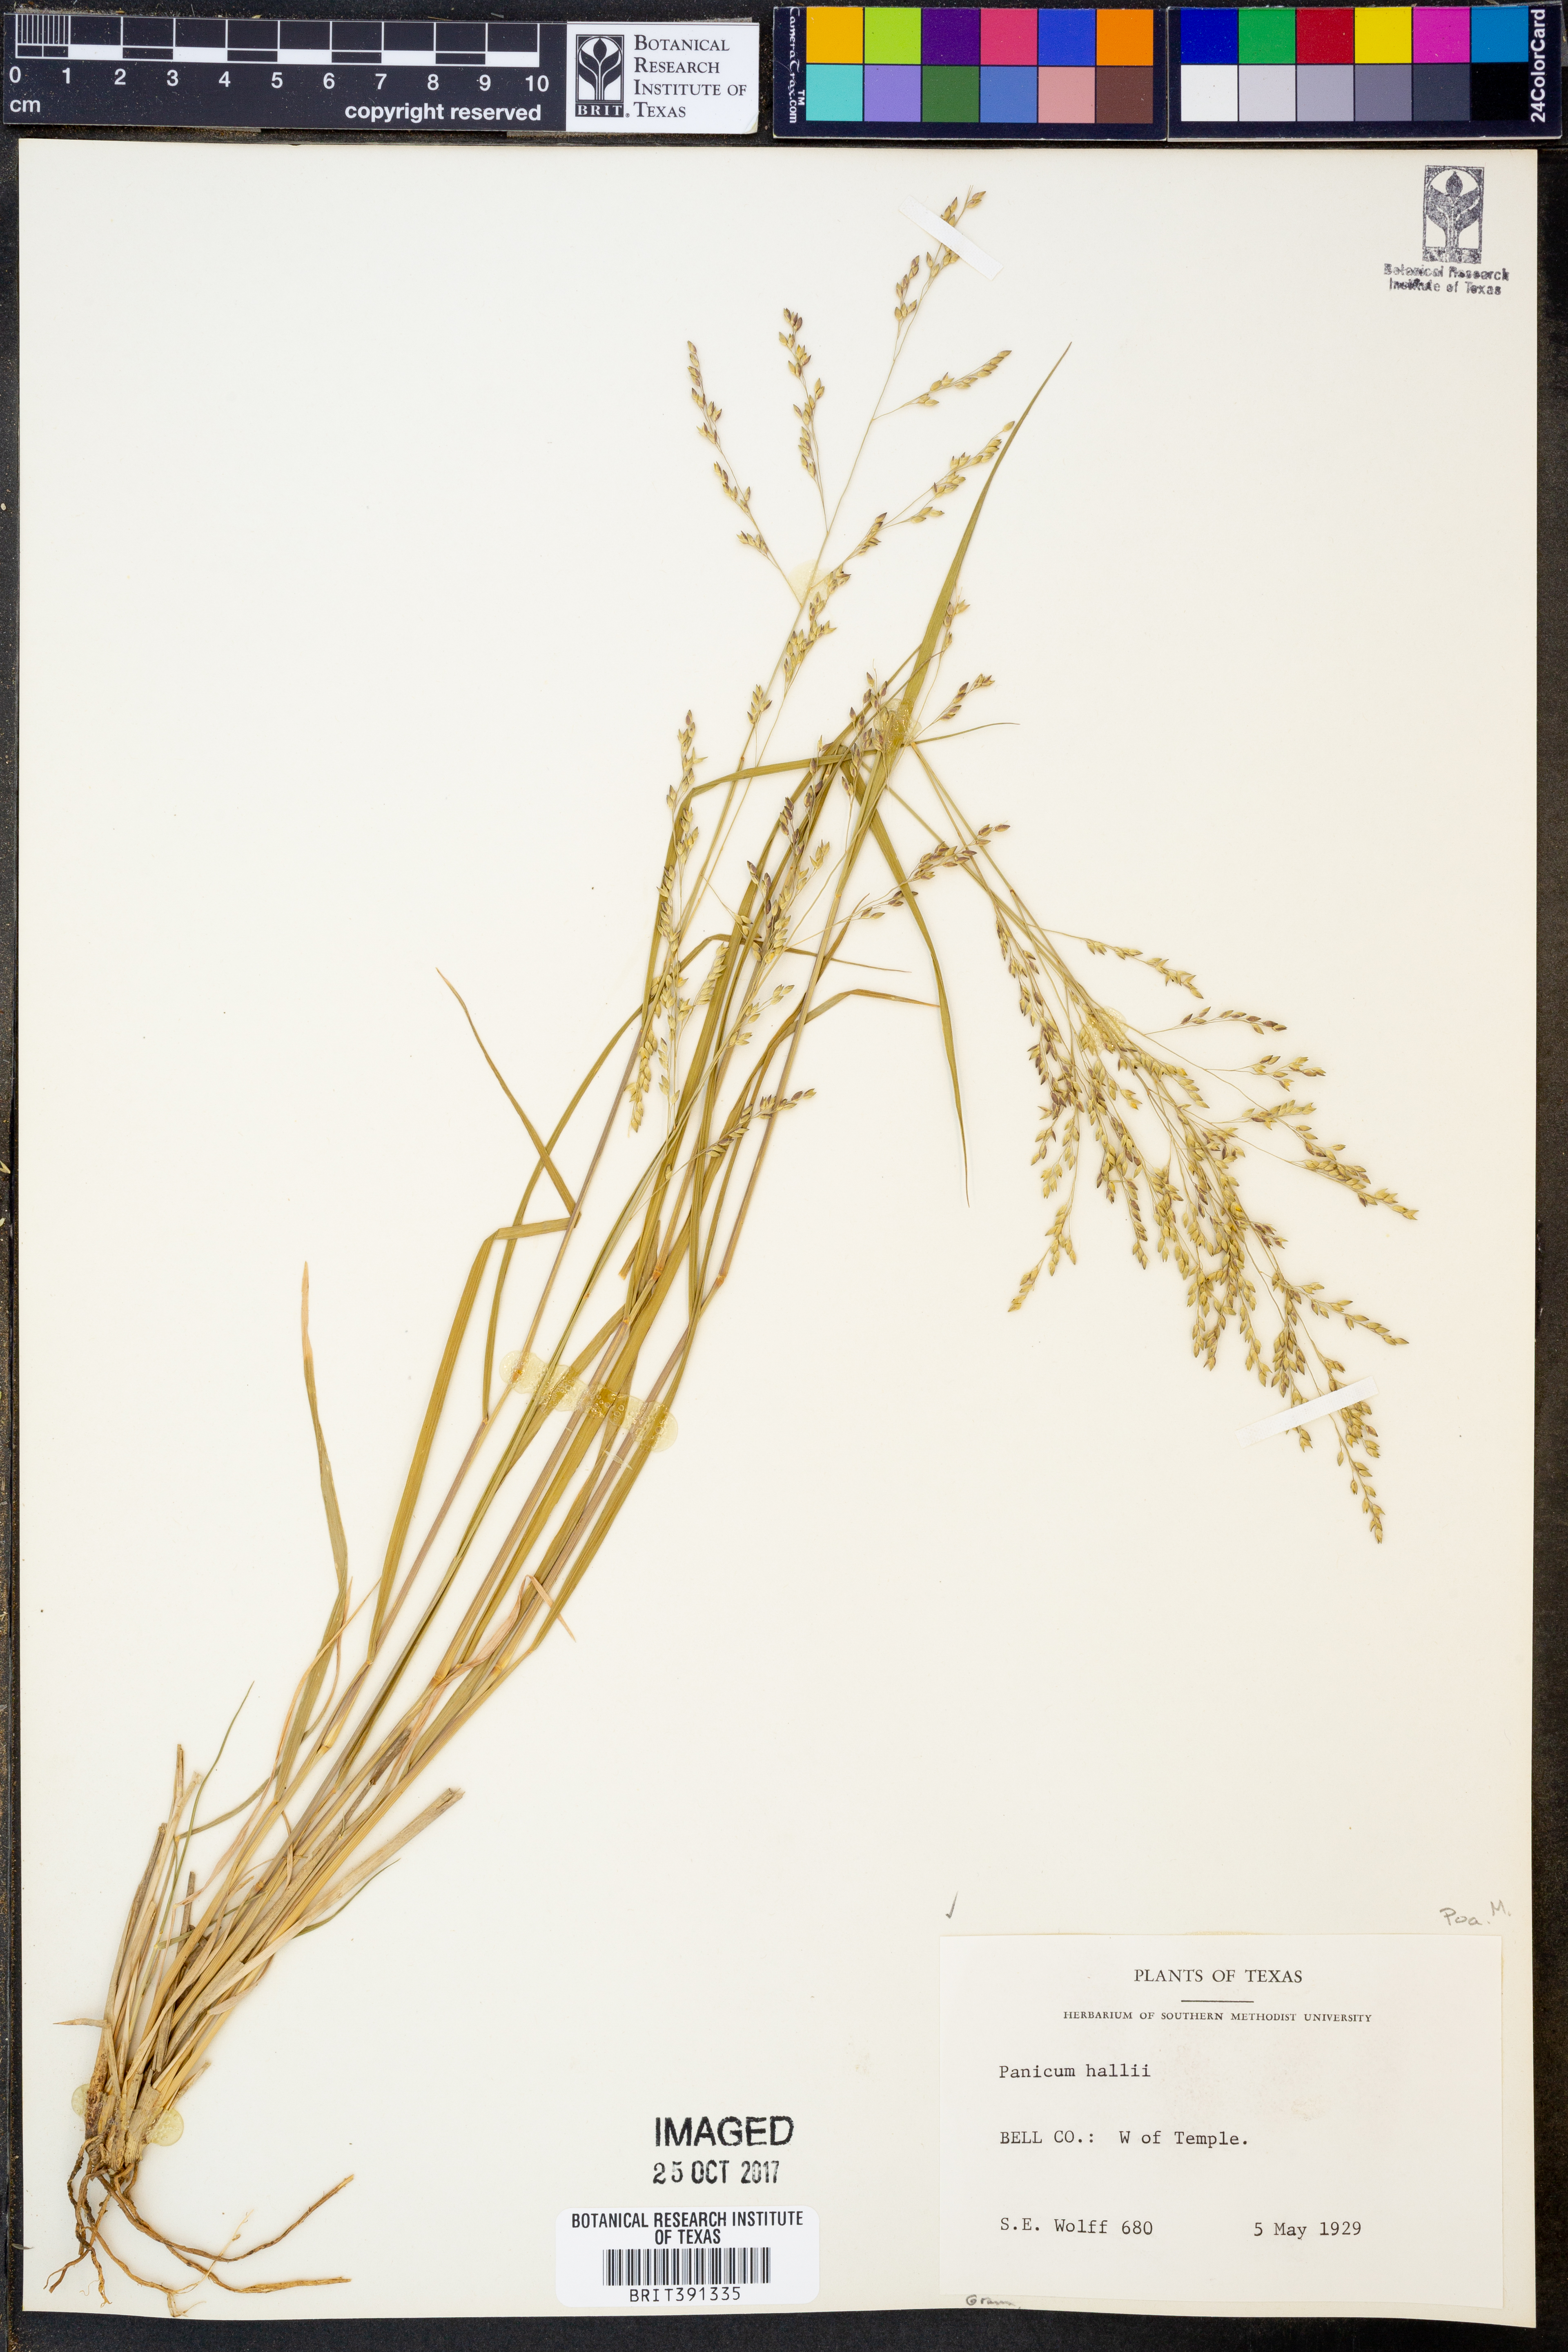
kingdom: Plantae
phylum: Tracheophyta
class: Liliopsida
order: Poales
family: Poaceae
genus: Panicum
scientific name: Panicum hallii
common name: Hall's witchgrass
